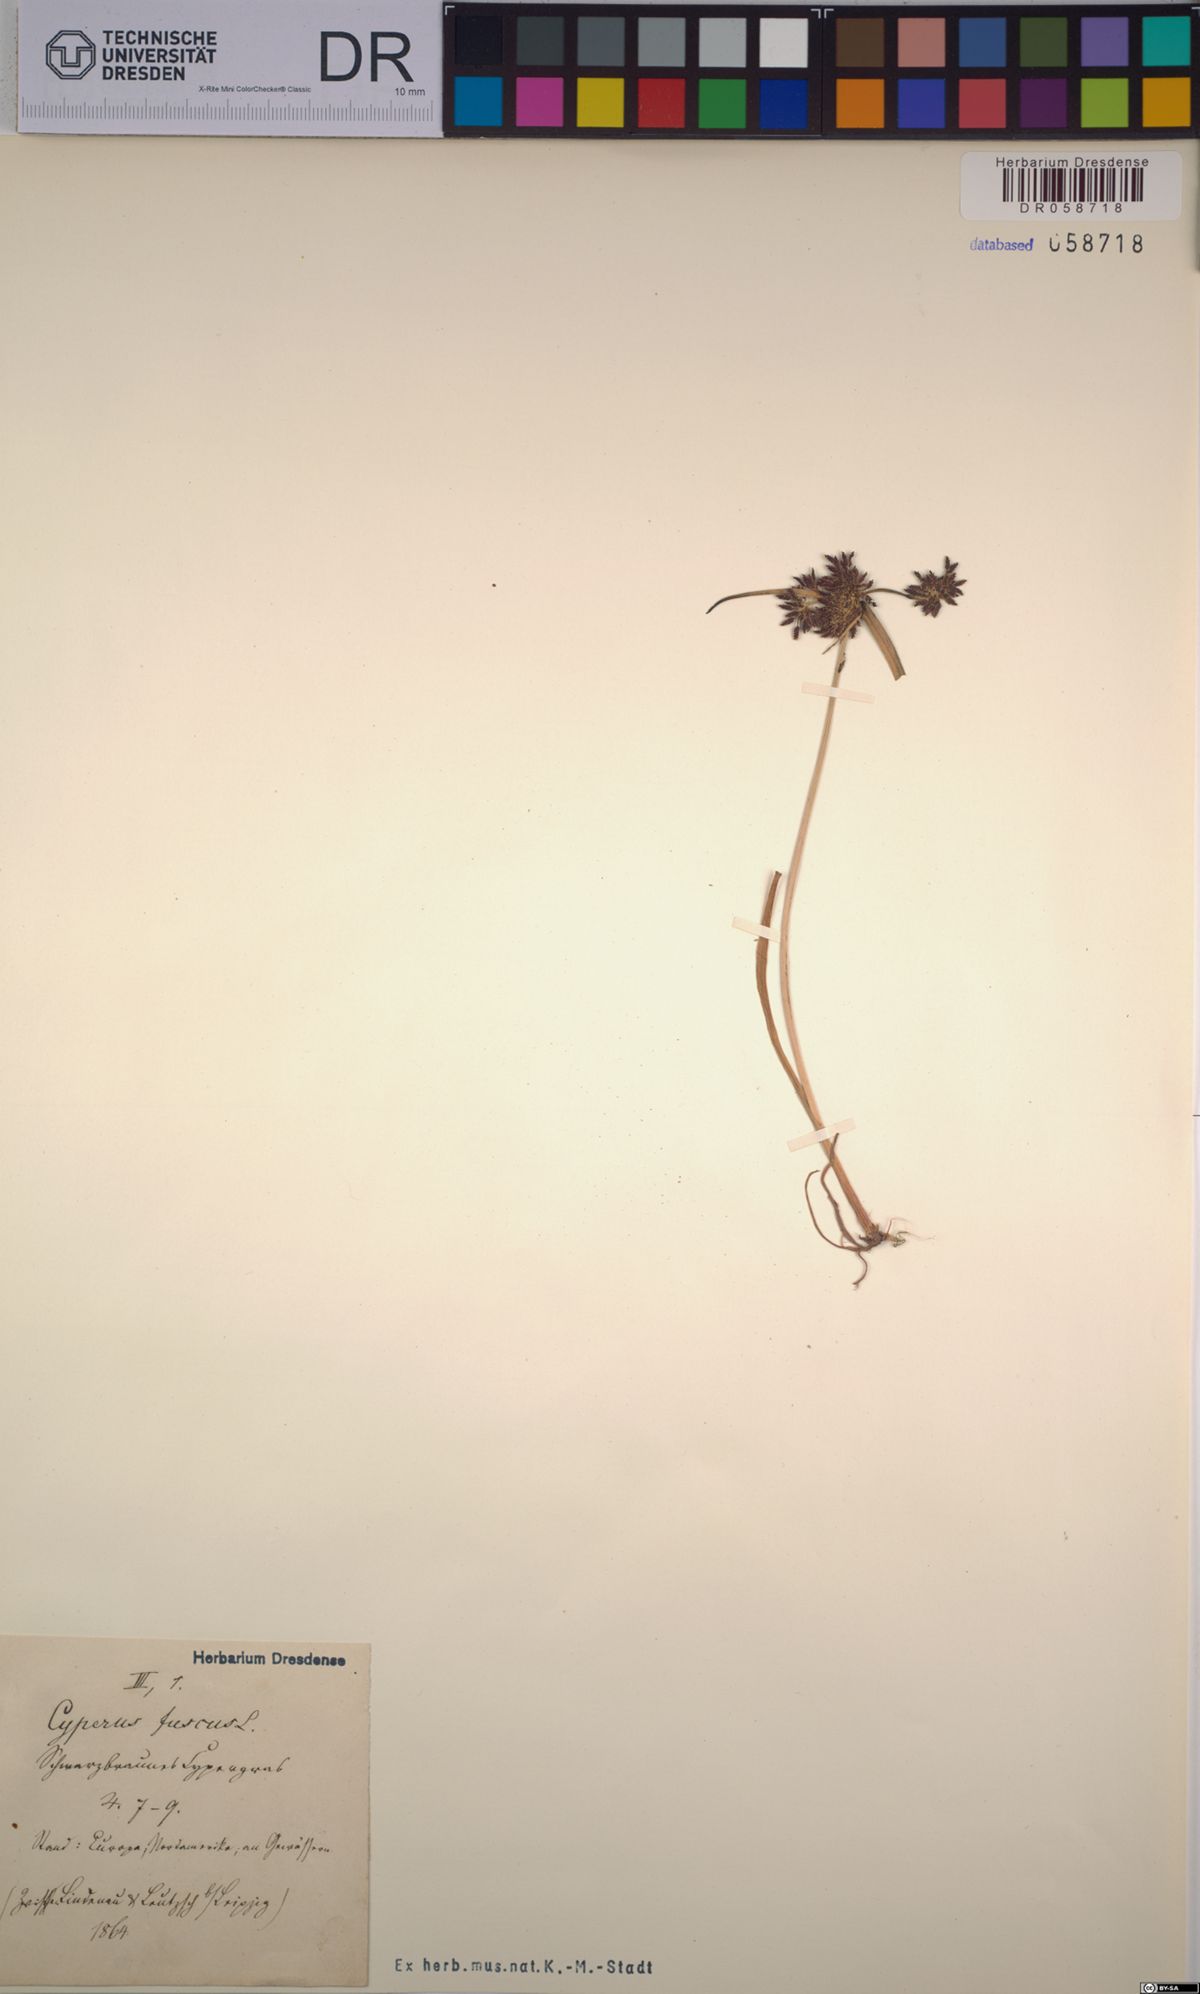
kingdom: Plantae
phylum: Tracheophyta
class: Liliopsida
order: Poales
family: Cyperaceae
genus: Cyperus
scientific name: Cyperus fuscus
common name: Brown galingale
